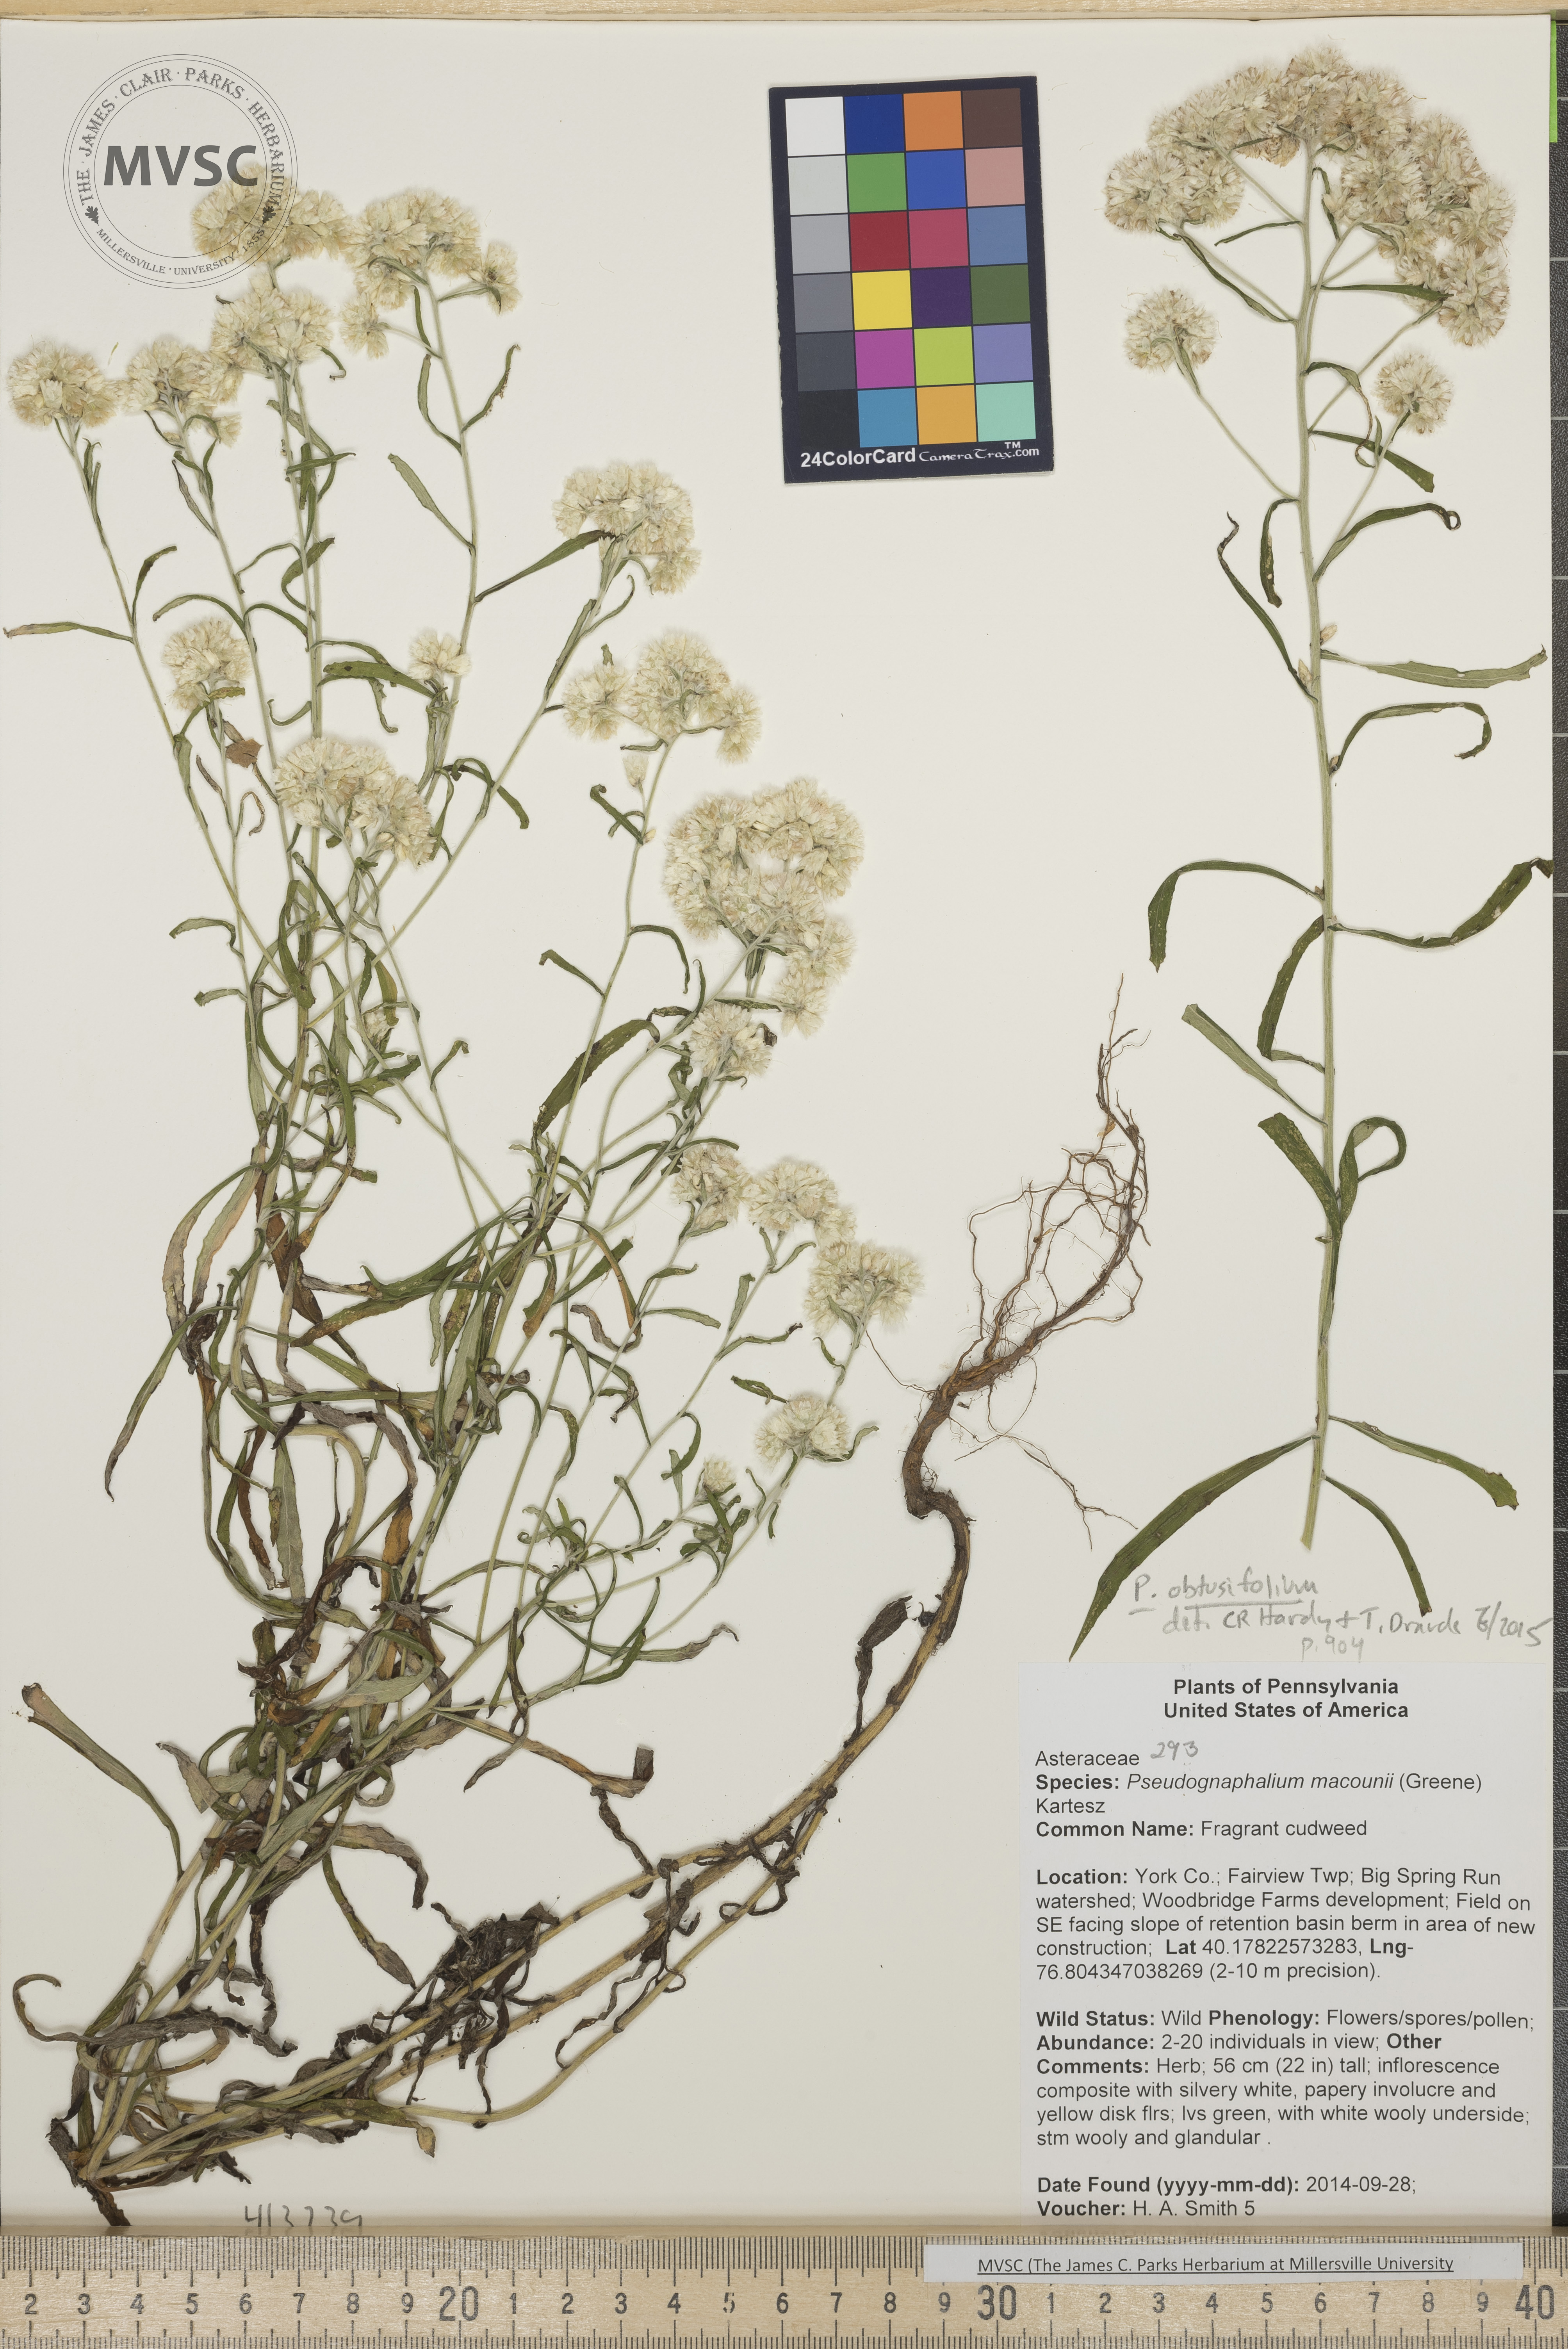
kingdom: Plantae
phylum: Tracheophyta
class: Magnoliopsida
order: Asterales
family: Asteraceae
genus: Pseudognaphalium
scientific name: Pseudognaphalium obtusifolium
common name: Cudweed
